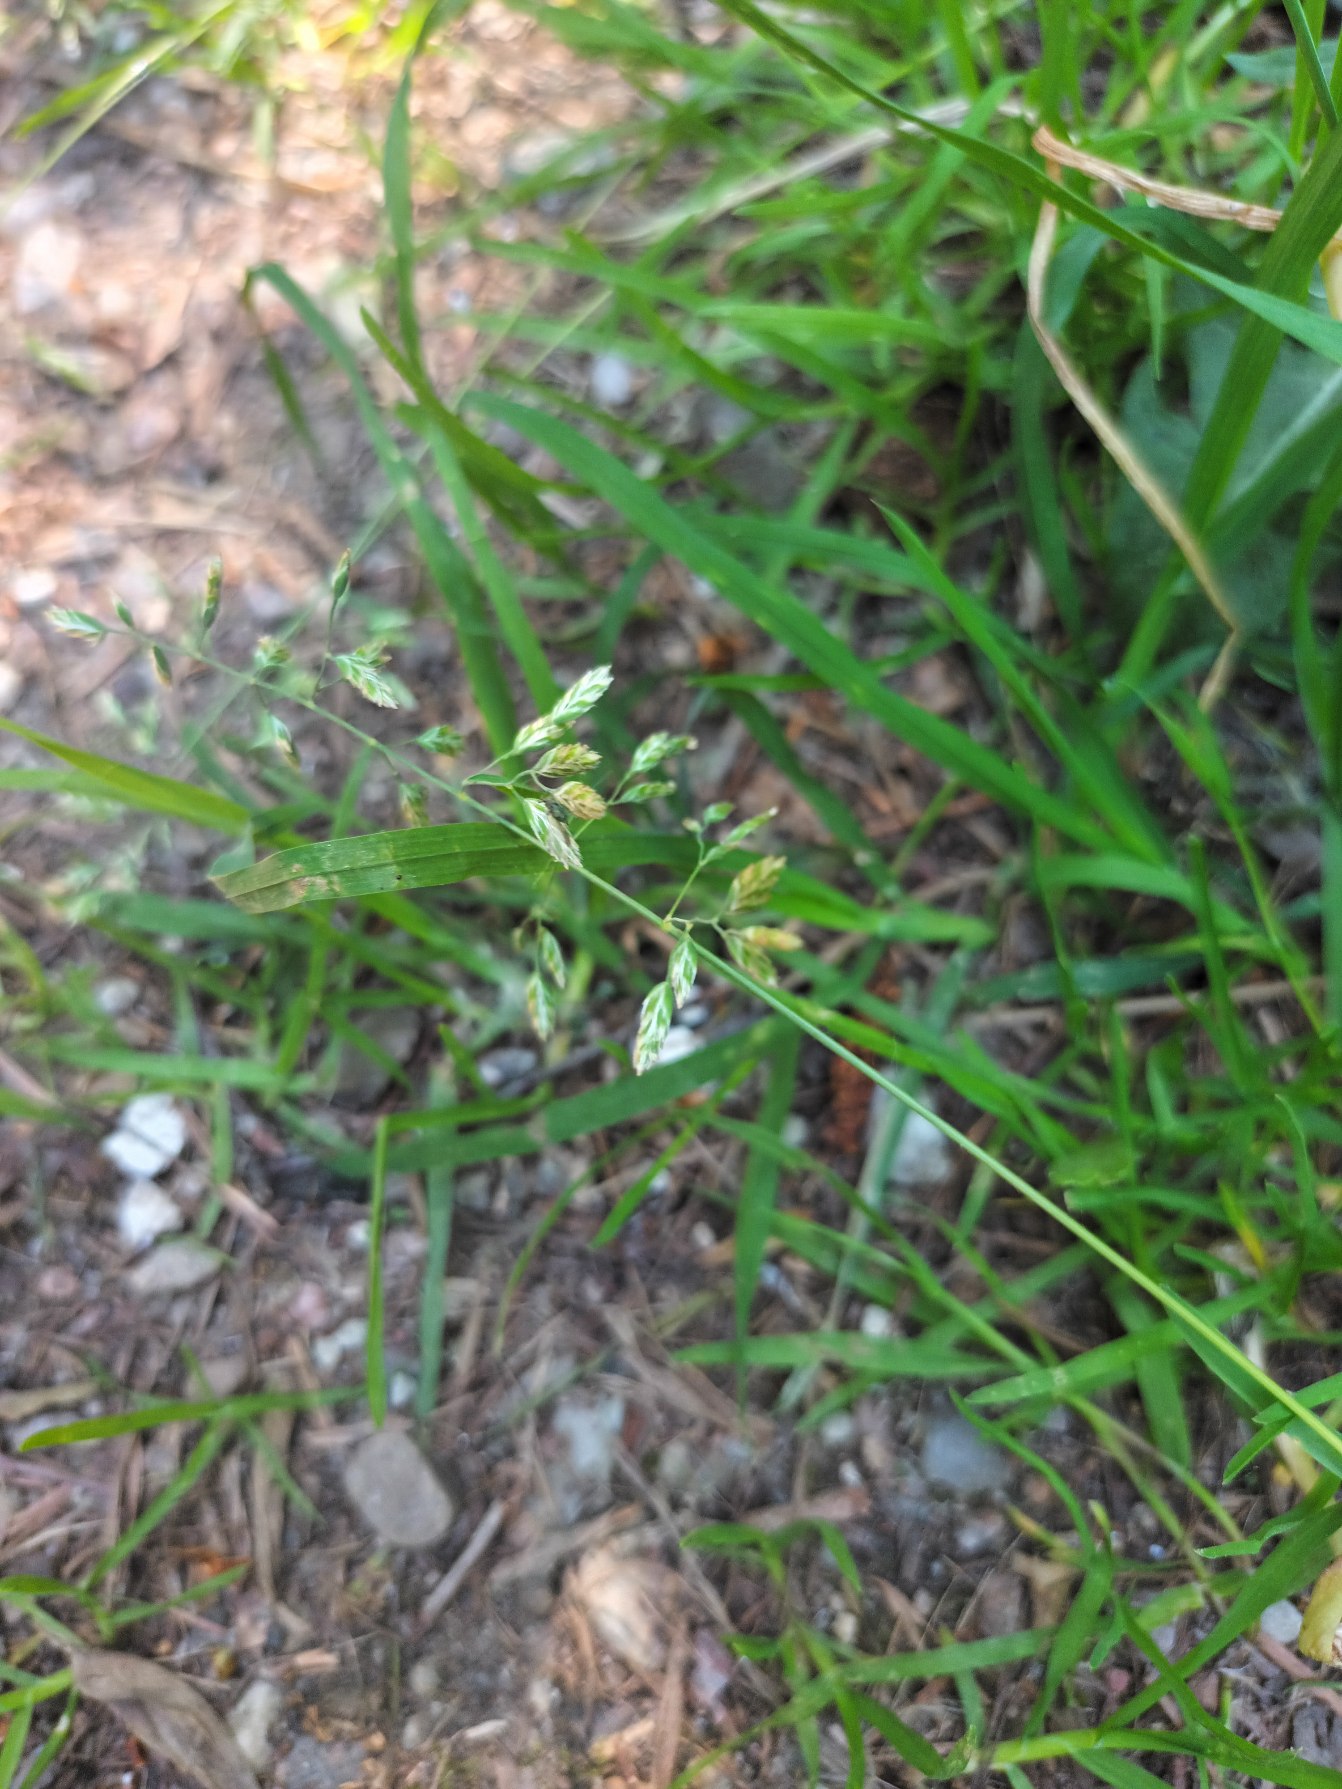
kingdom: Plantae
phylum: Tracheophyta
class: Liliopsida
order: Poales
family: Poaceae
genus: Poa
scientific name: Poa annua
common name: Enårig rapgræs
